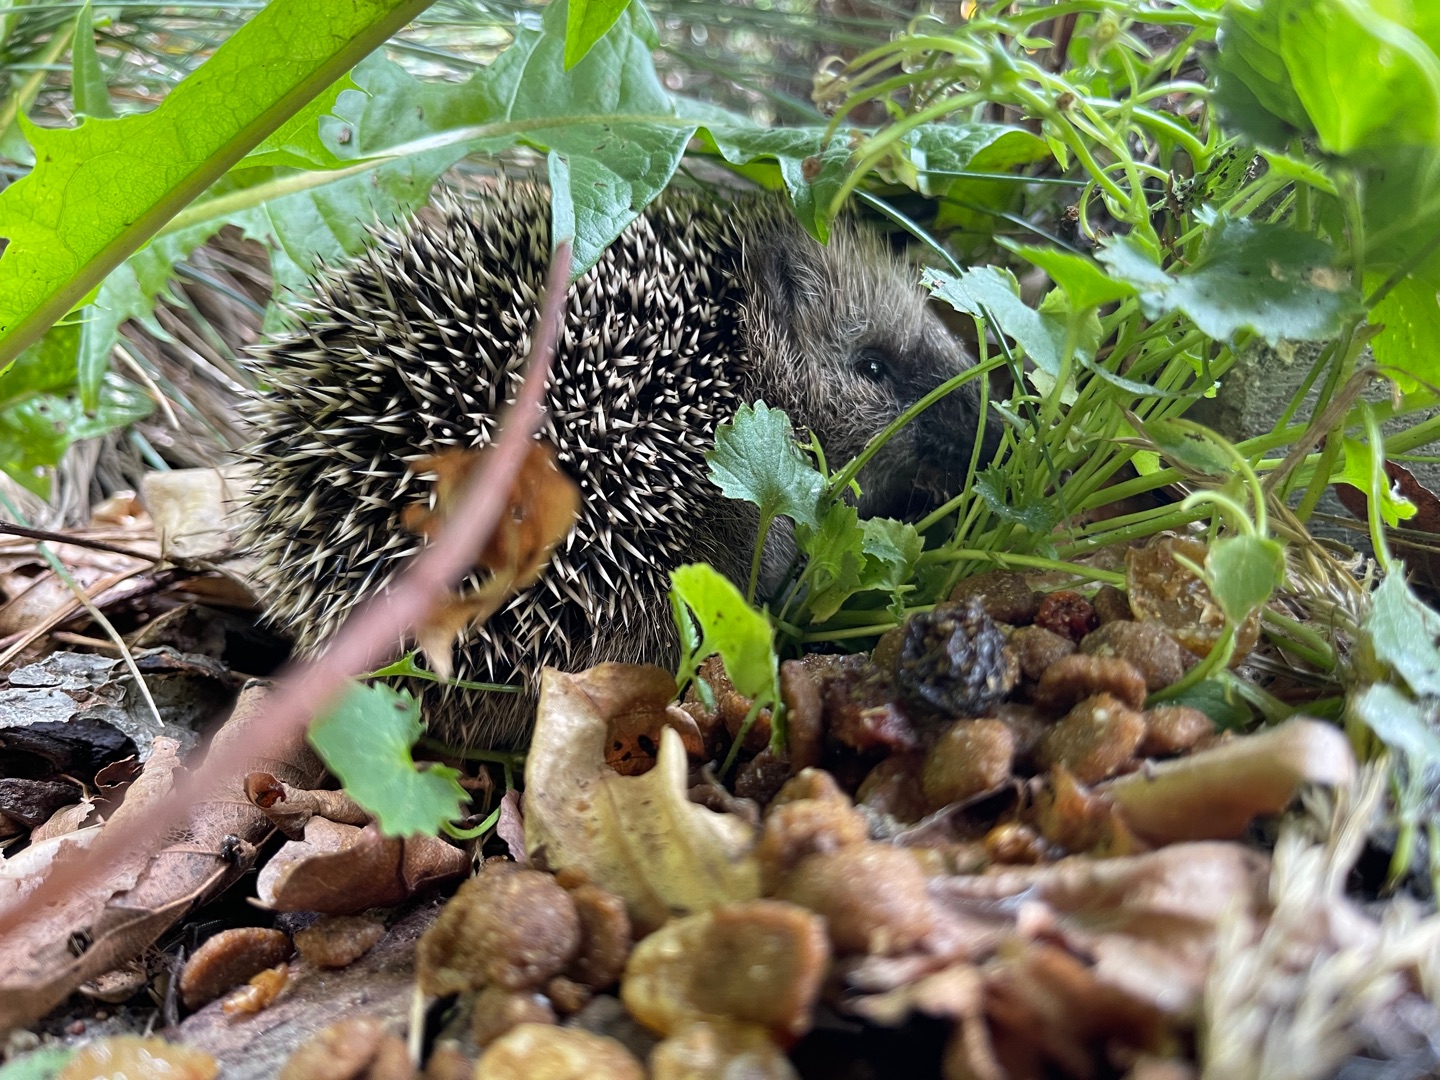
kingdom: Animalia
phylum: Chordata
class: Mammalia
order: Erinaceomorpha
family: Erinaceidae
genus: Erinaceus
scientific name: Erinaceus europaeus
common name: Pindsvin
